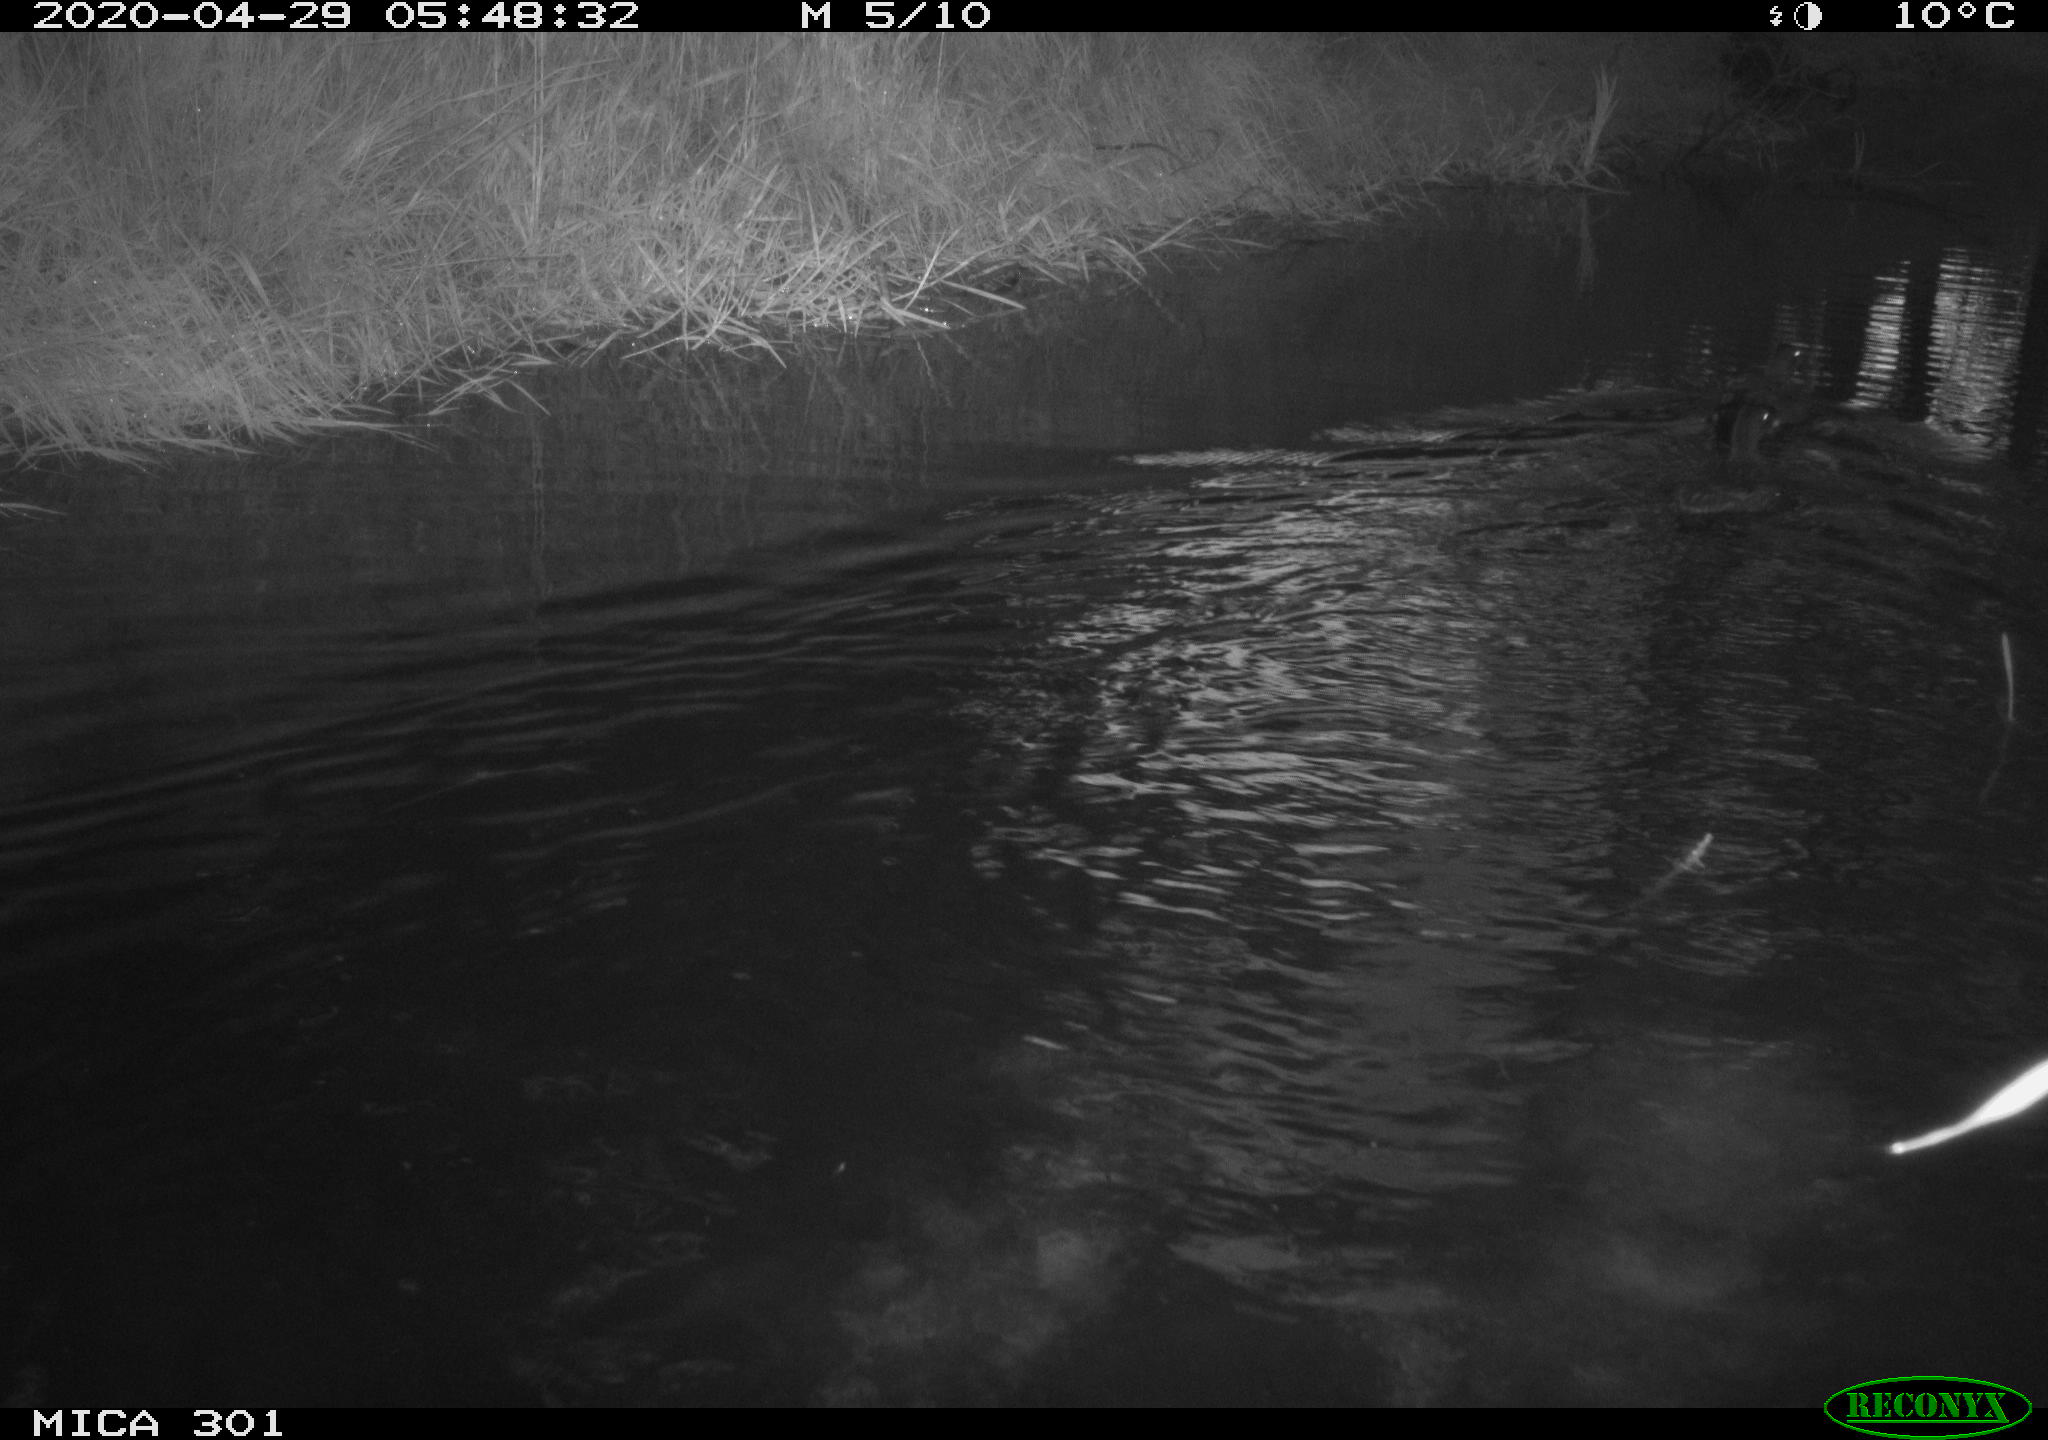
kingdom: Animalia
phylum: Chordata
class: Aves
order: Anseriformes
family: Anatidae
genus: Mareca
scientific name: Mareca strepera
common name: Gadwall
